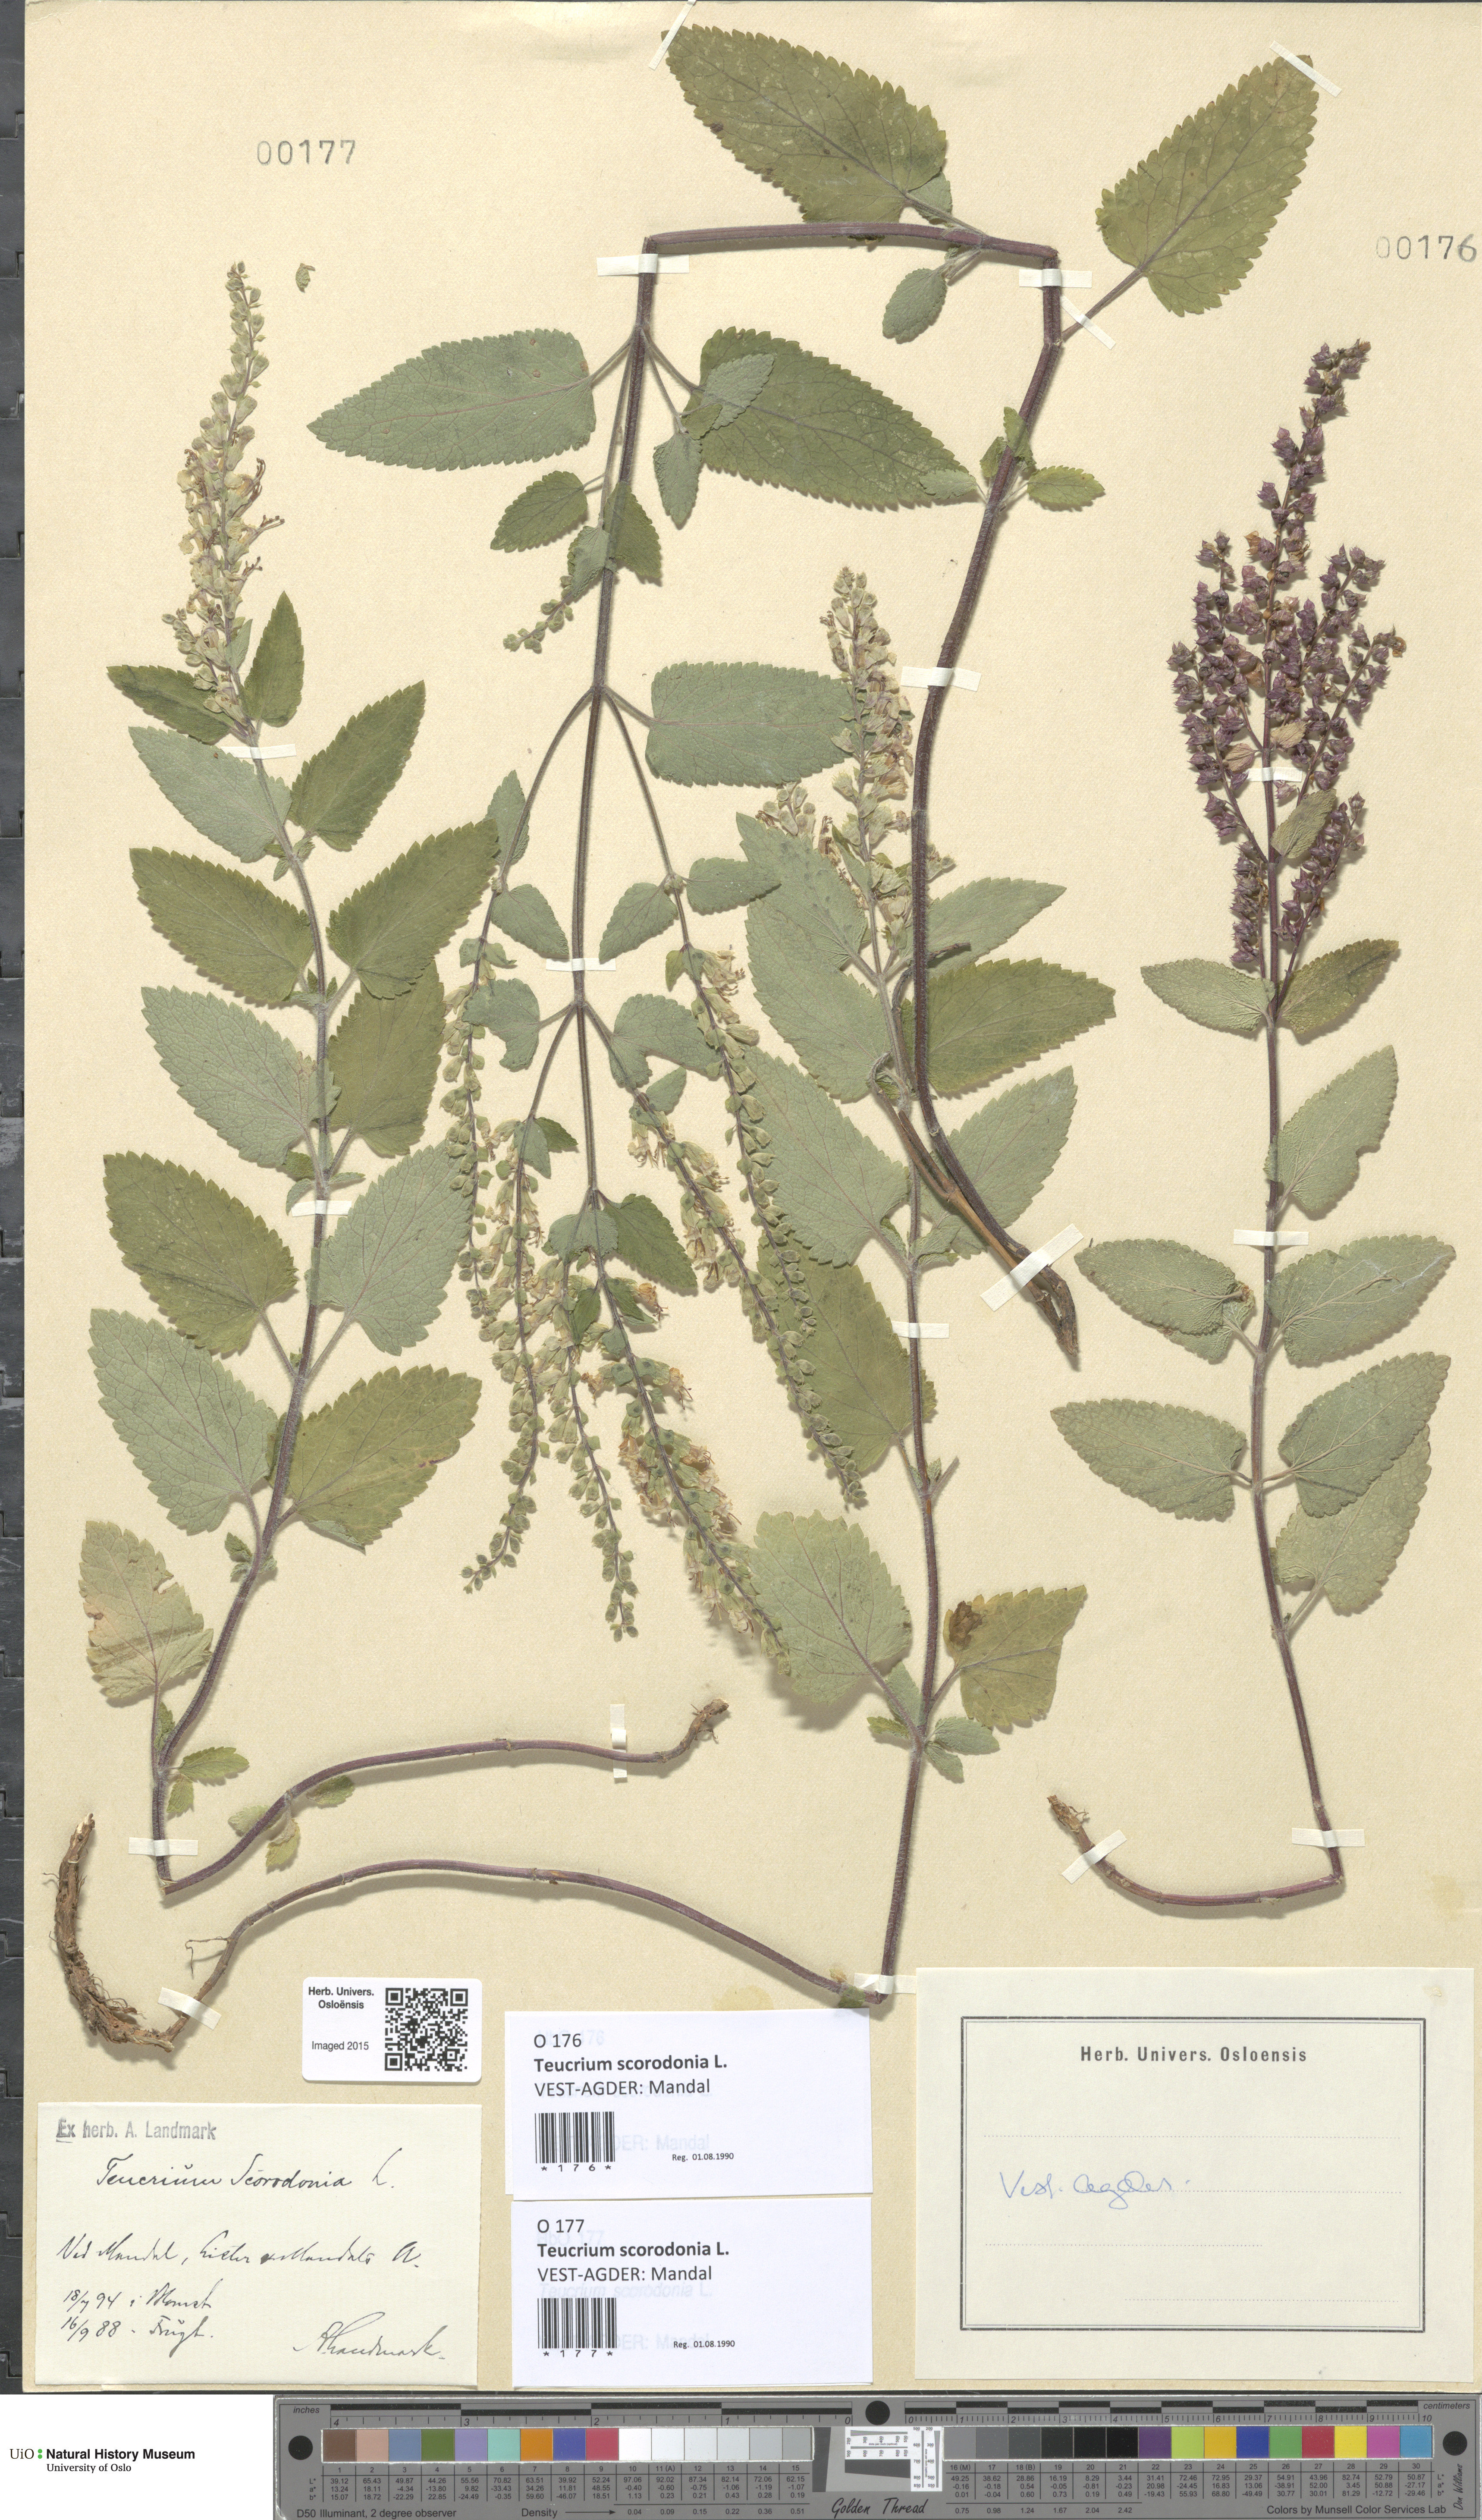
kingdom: Plantae
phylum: Tracheophyta
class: Magnoliopsida
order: Lamiales
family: Lamiaceae
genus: Teucrium
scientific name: Teucrium scorodonia
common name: Woodland germander
